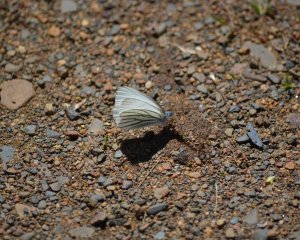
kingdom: Animalia
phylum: Arthropoda
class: Insecta
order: Lepidoptera
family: Pieridae
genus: Pieris
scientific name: Pieris oleracea
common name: Mustard White
